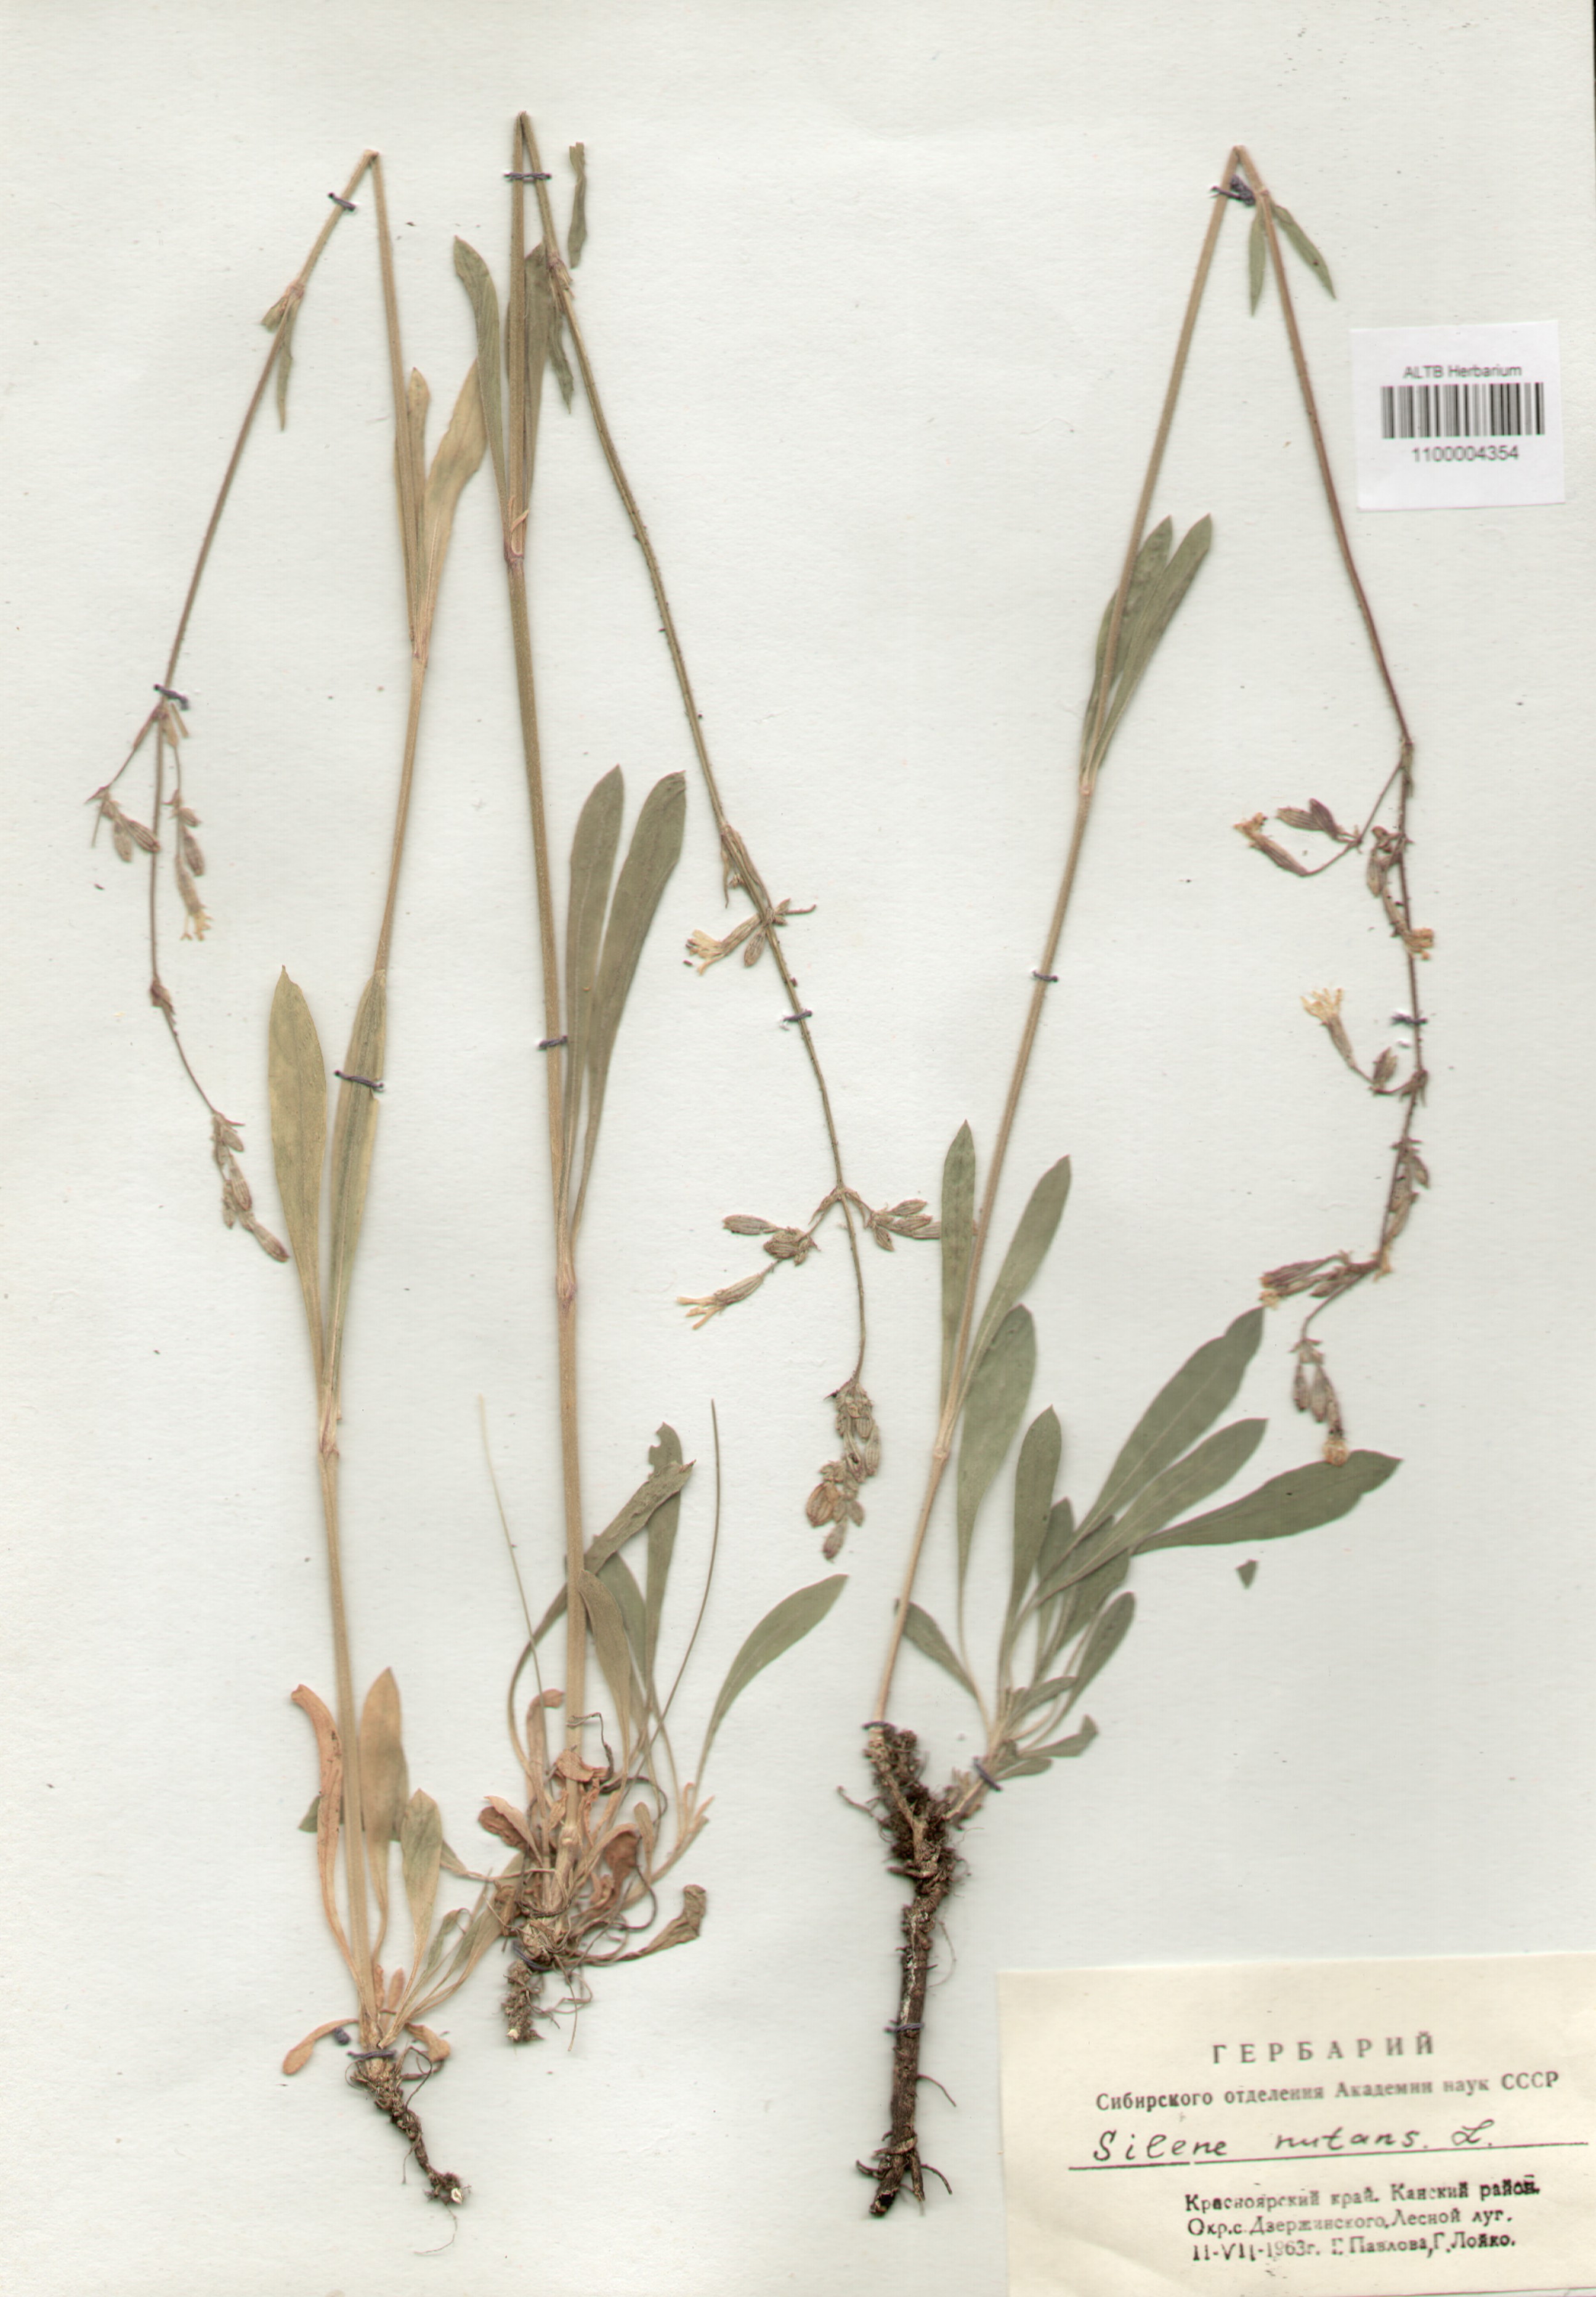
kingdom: Plantae
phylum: Tracheophyta
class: Magnoliopsida
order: Caryophyllales
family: Caryophyllaceae
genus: Silene
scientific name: Silene nutans
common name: Nottingham catchfly
